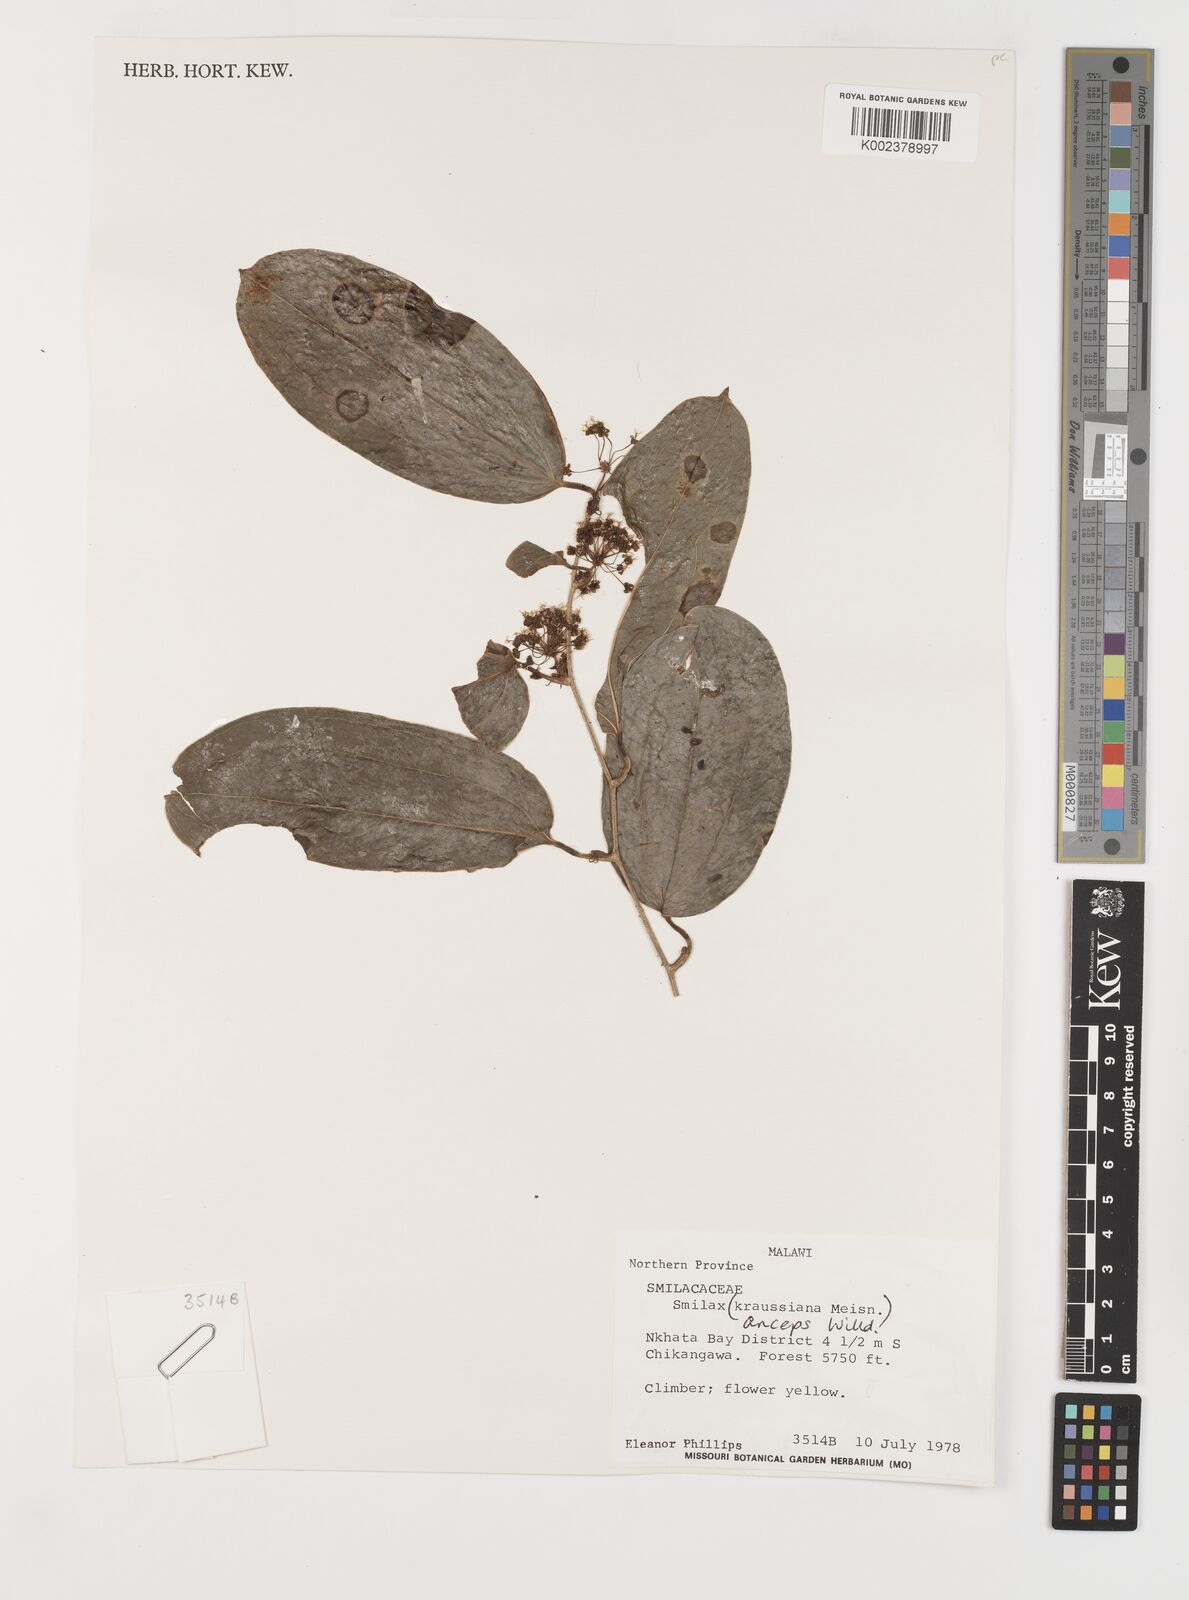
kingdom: Plantae
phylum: Tracheophyta
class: Liliopsida
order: Liliales
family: Smilacaceae
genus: Smilax
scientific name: Smilax anceps
